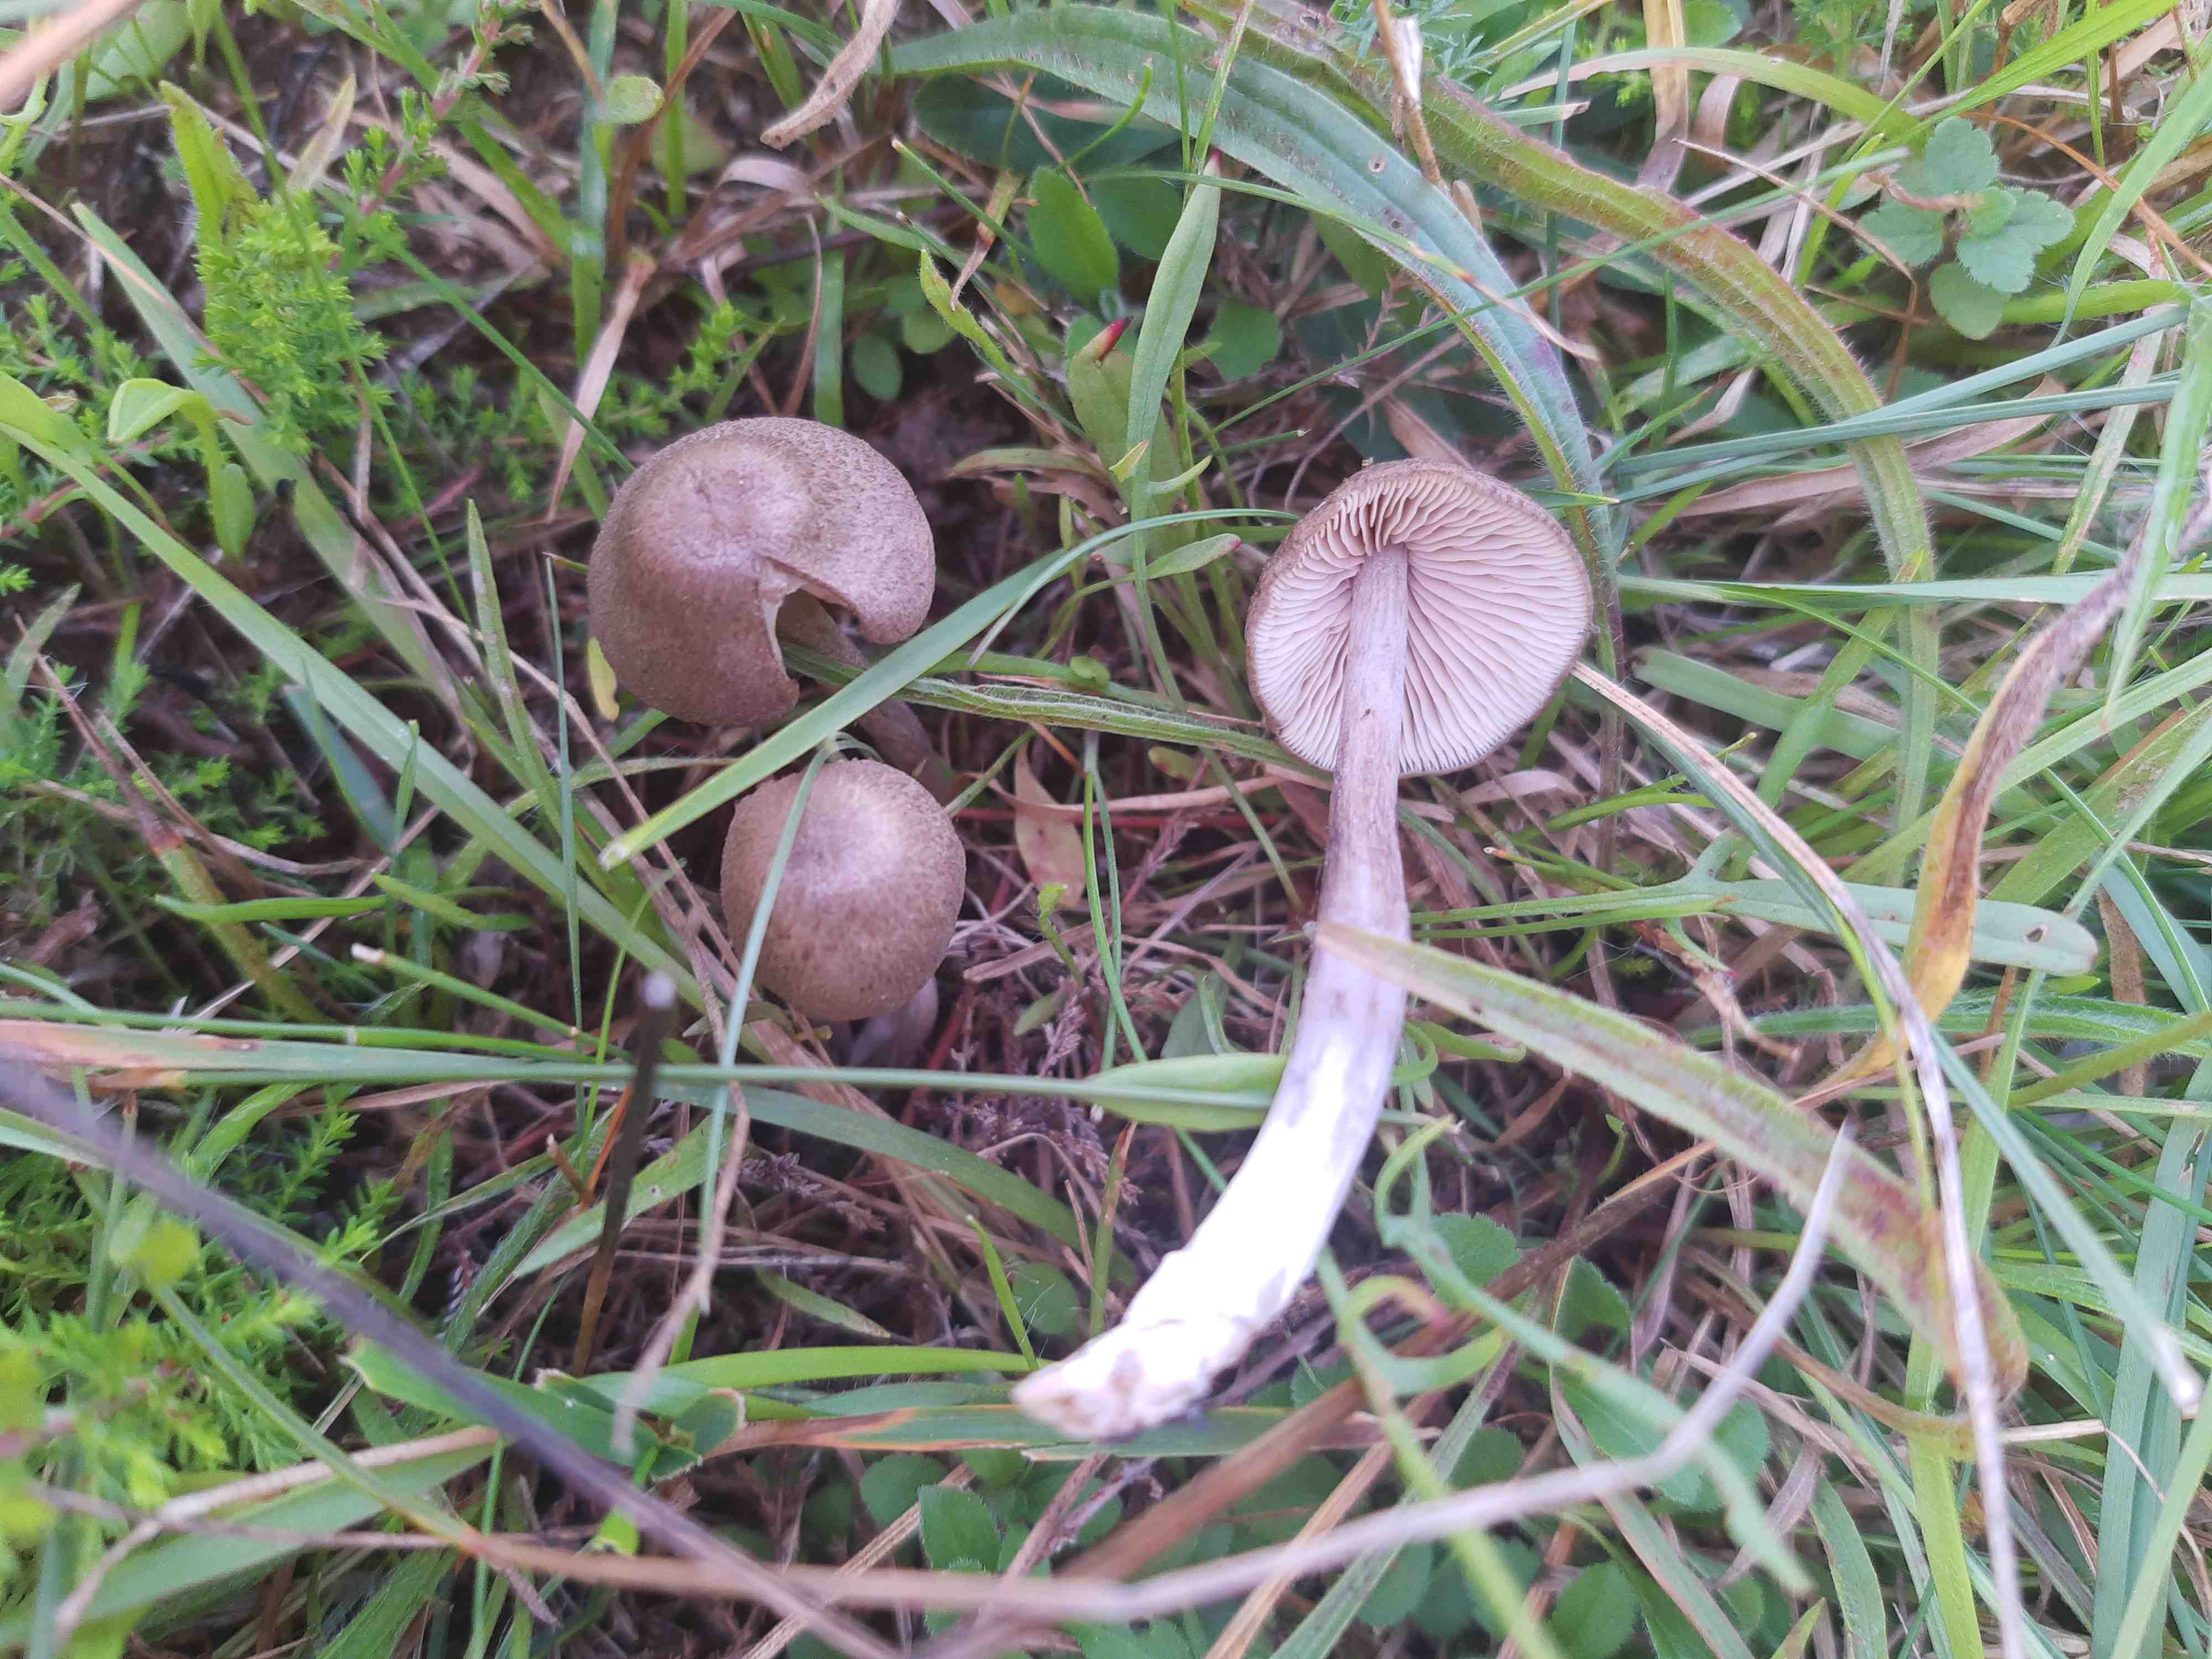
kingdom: Fungi
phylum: Basidiomycota
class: Agaricomycetes
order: Agaricales
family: Entolomataceae
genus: Entoloma
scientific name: Entoloma griseocyaneum
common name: gråblå rødblad
